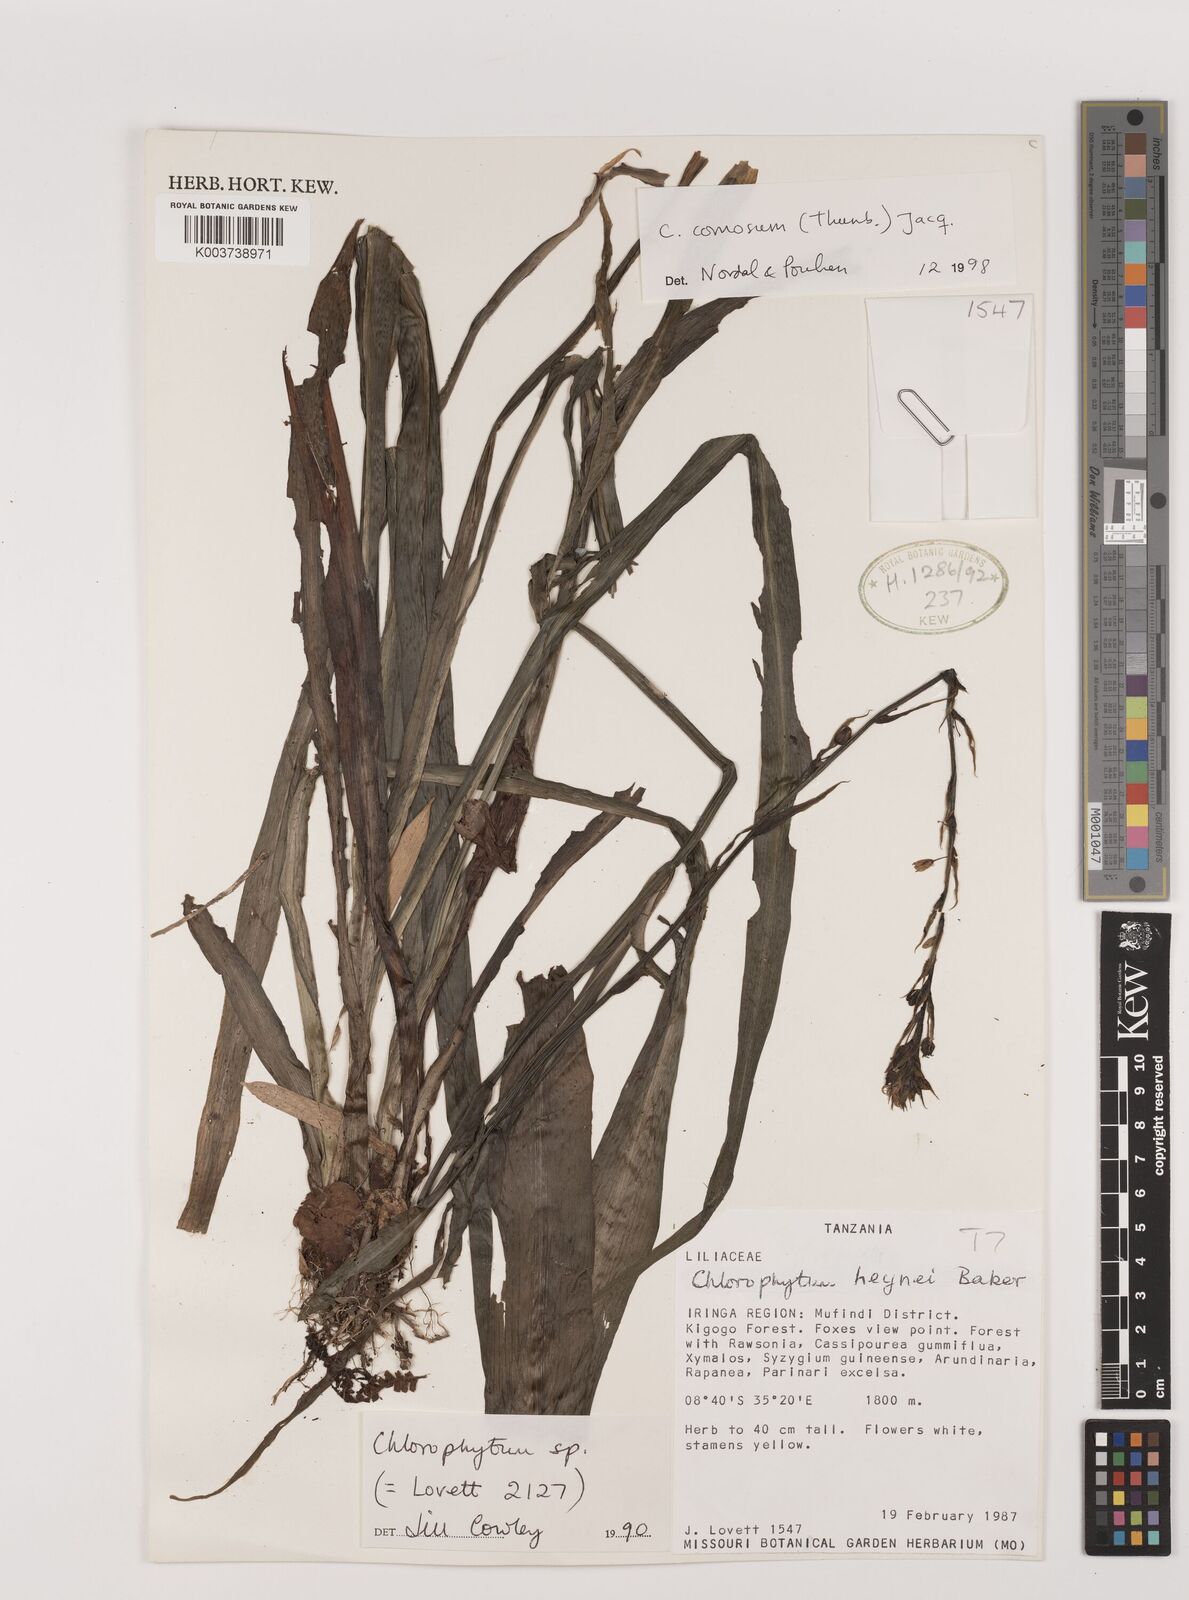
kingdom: Plantae
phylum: Tracheophyta
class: Liliopsida
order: Asparagales
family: Asparagaceae
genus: Chlorophytum
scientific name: Chlorophytum comosum
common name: Spider plant
